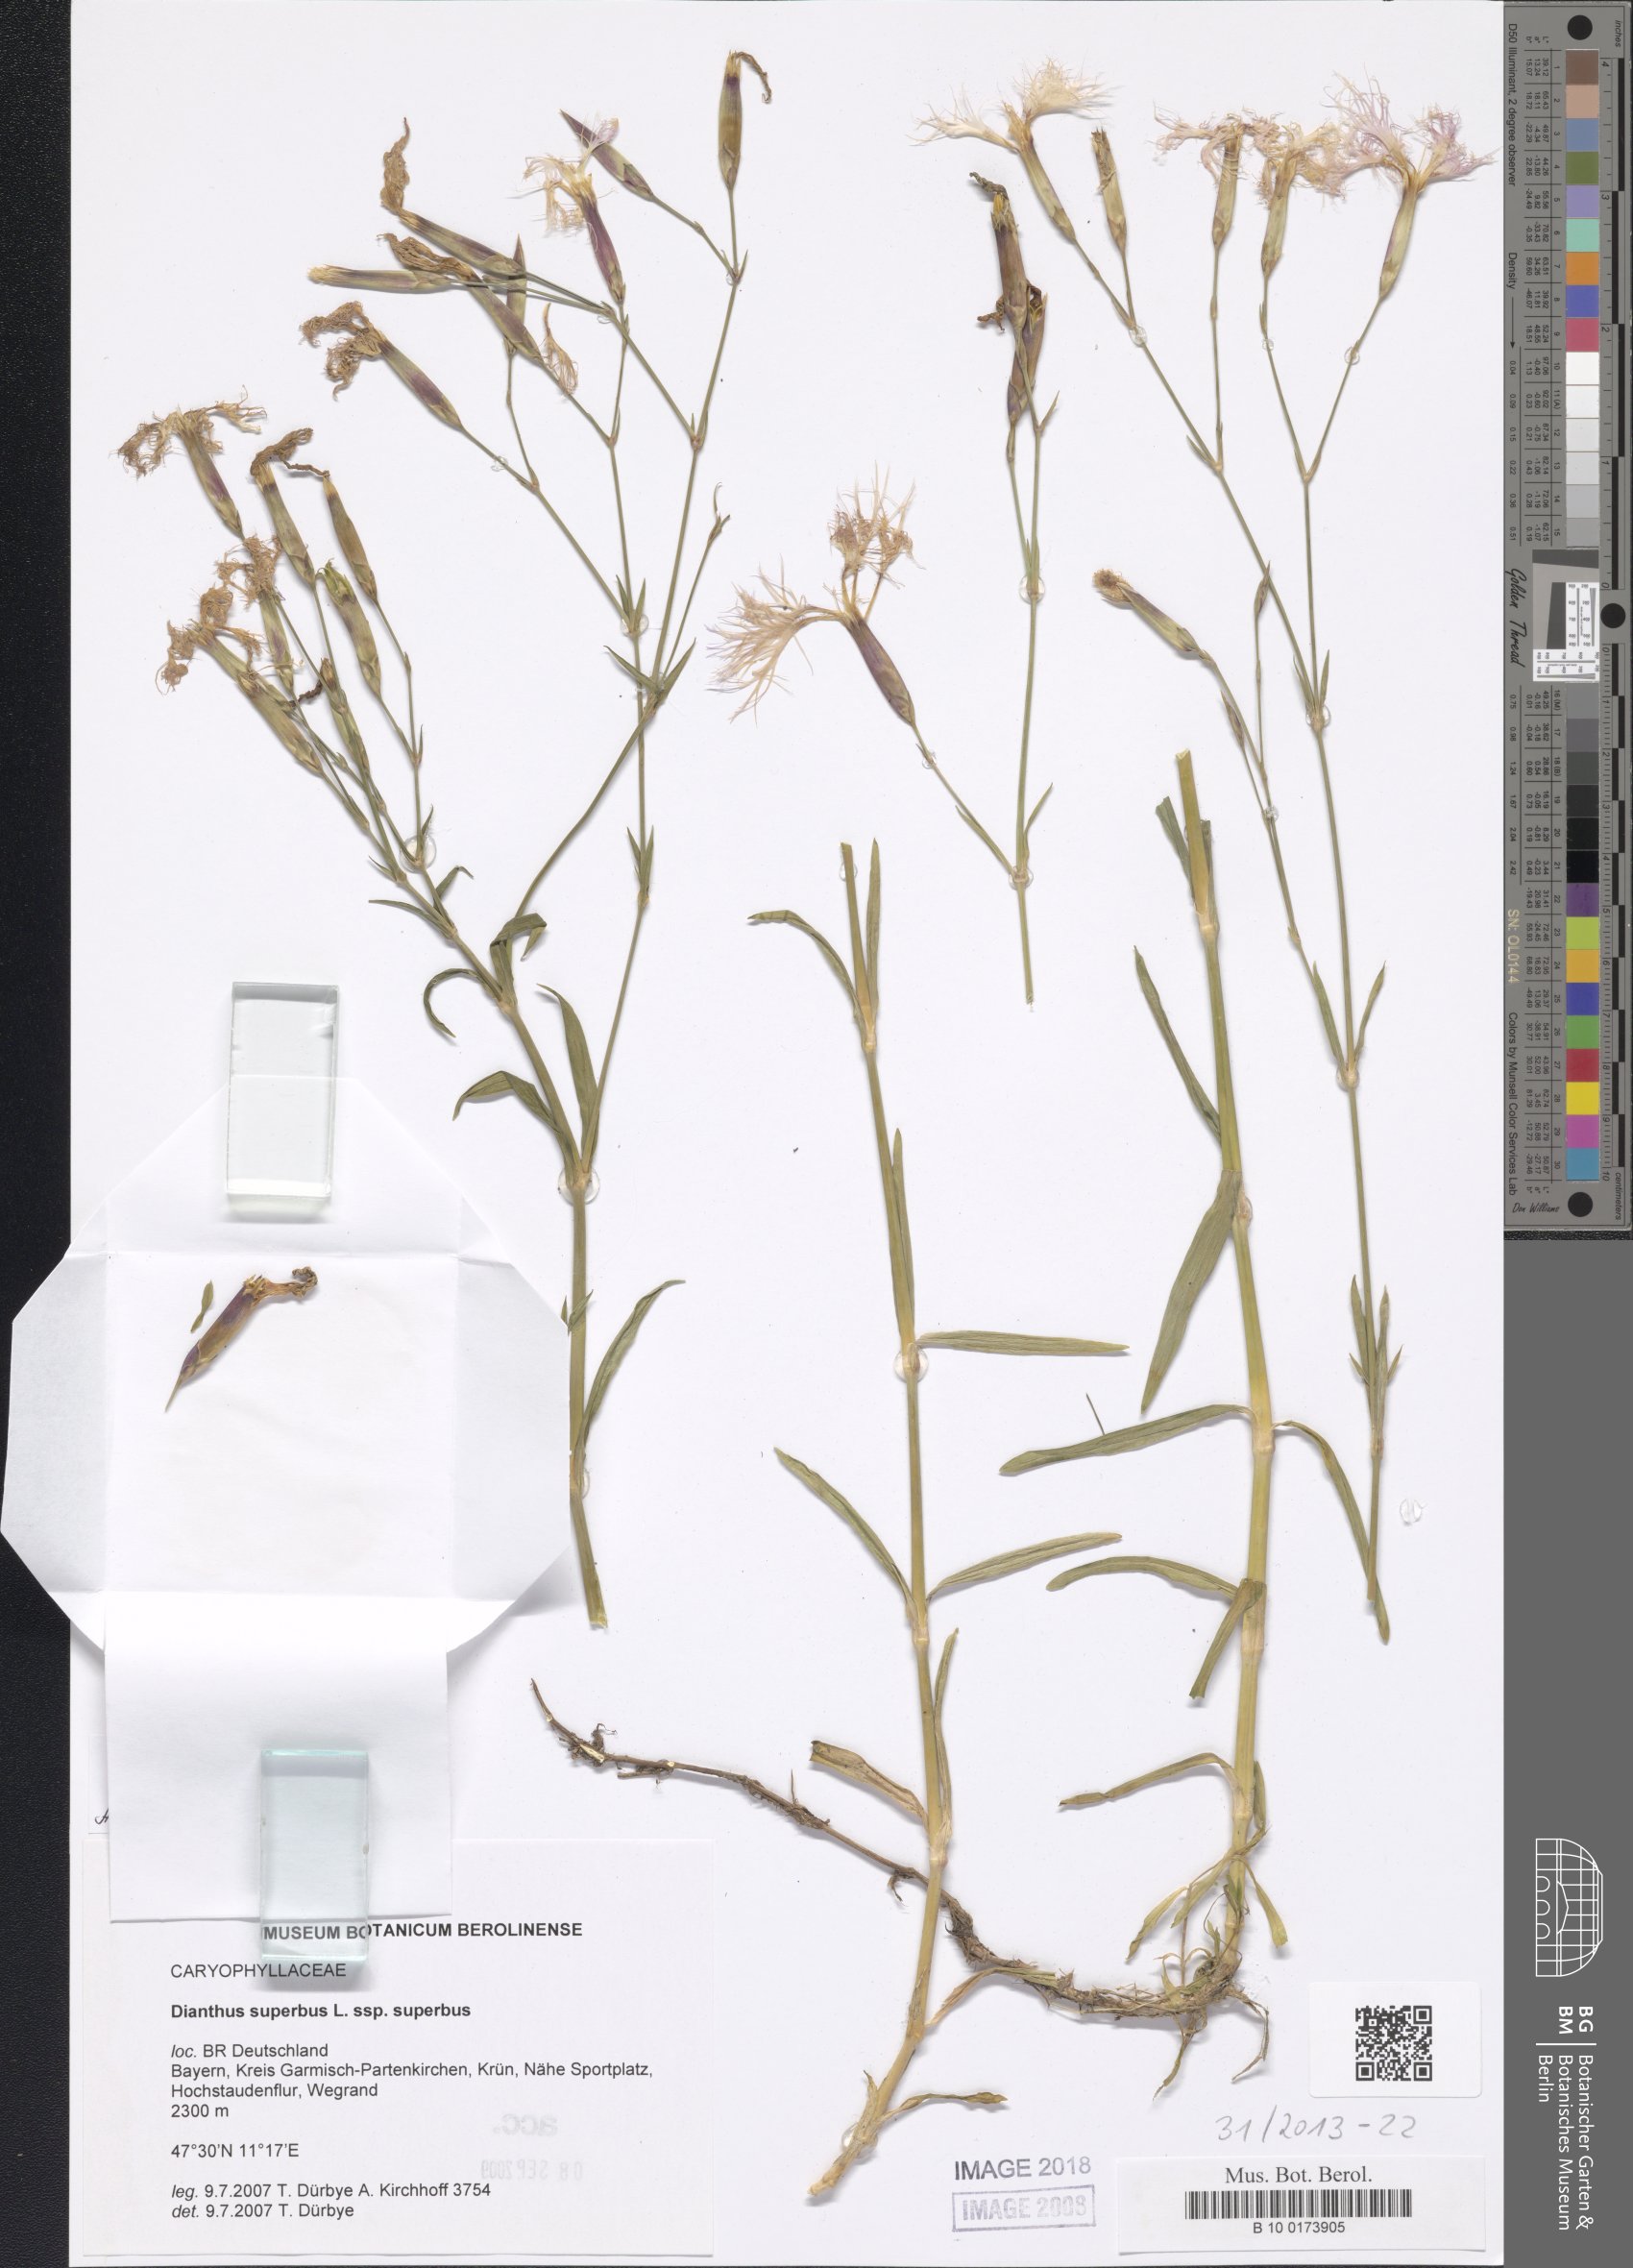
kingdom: Plantae
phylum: Tracheophyta
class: Magnoliopsida
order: Caryophyllales
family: Caryophyllaceae
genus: Dianthus
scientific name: Dianthus superbus
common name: Fringed pink
